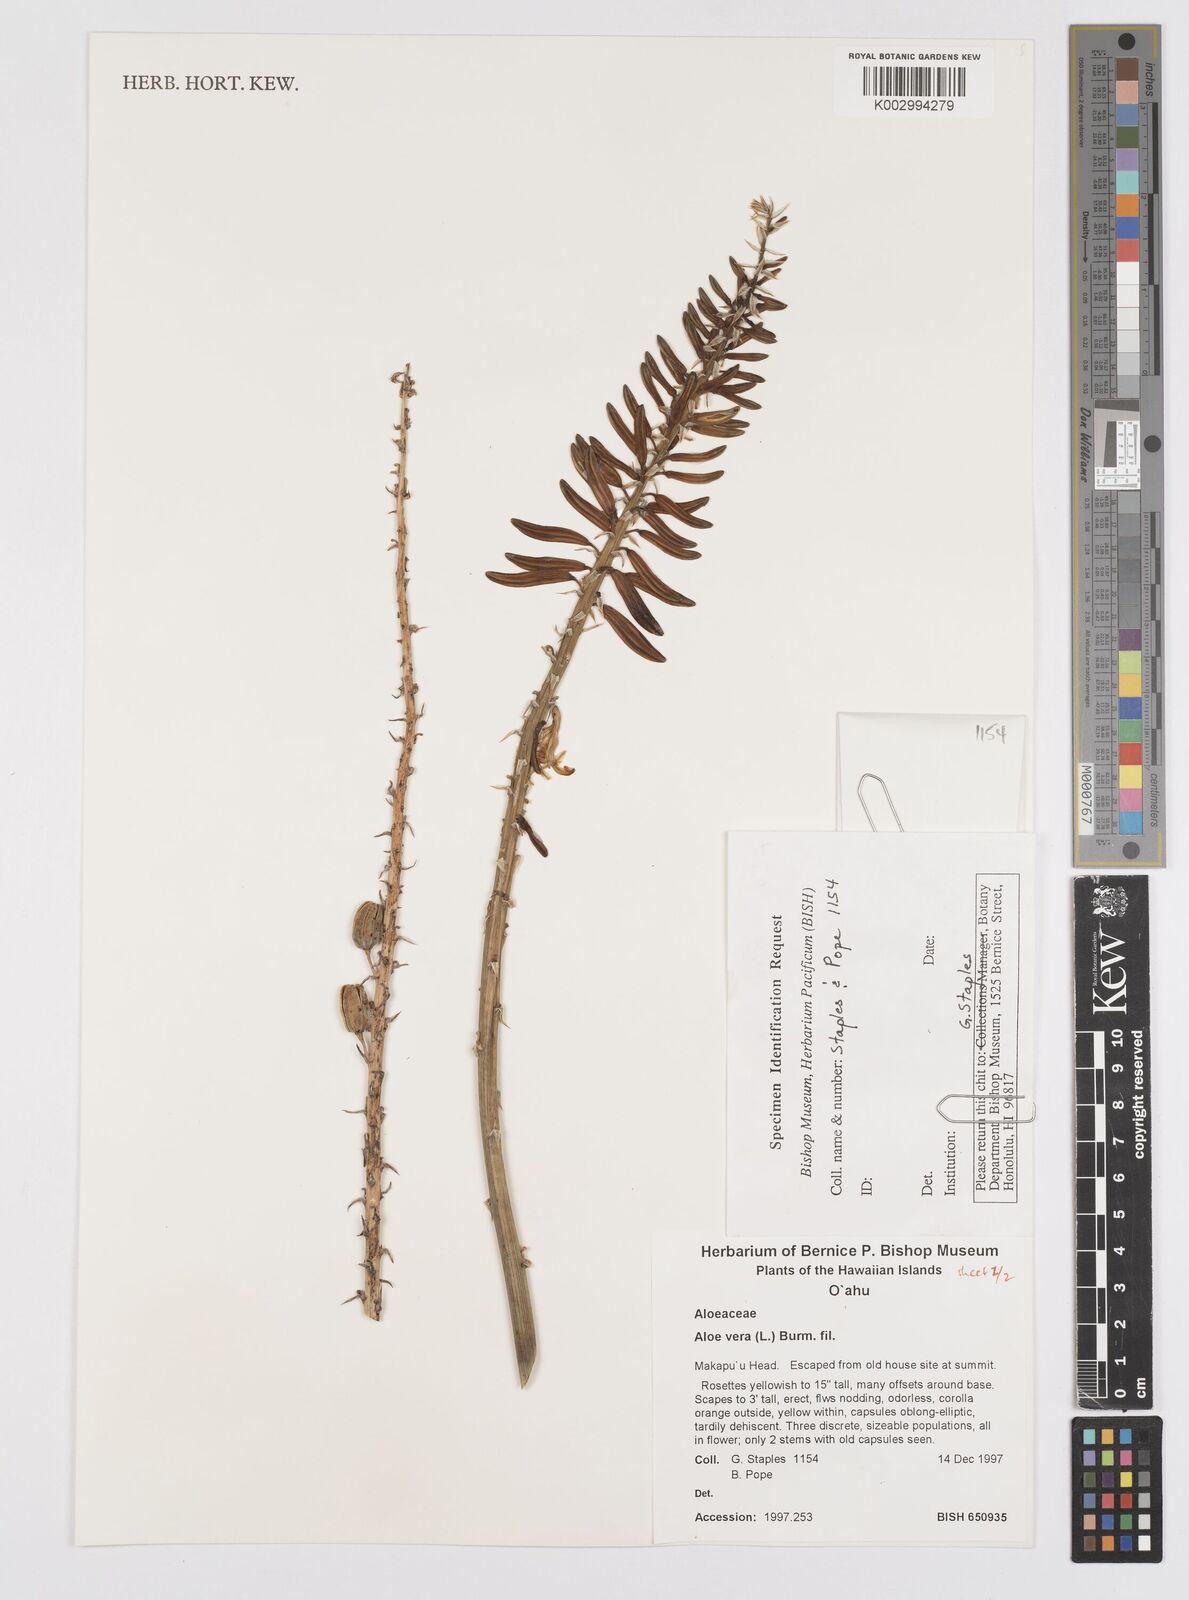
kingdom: Plantae
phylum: Tracheophyta
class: Liliopsida
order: Asparagales
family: Asphodelaceae
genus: Aloe
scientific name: Aloe vera
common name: Barbados aloe
